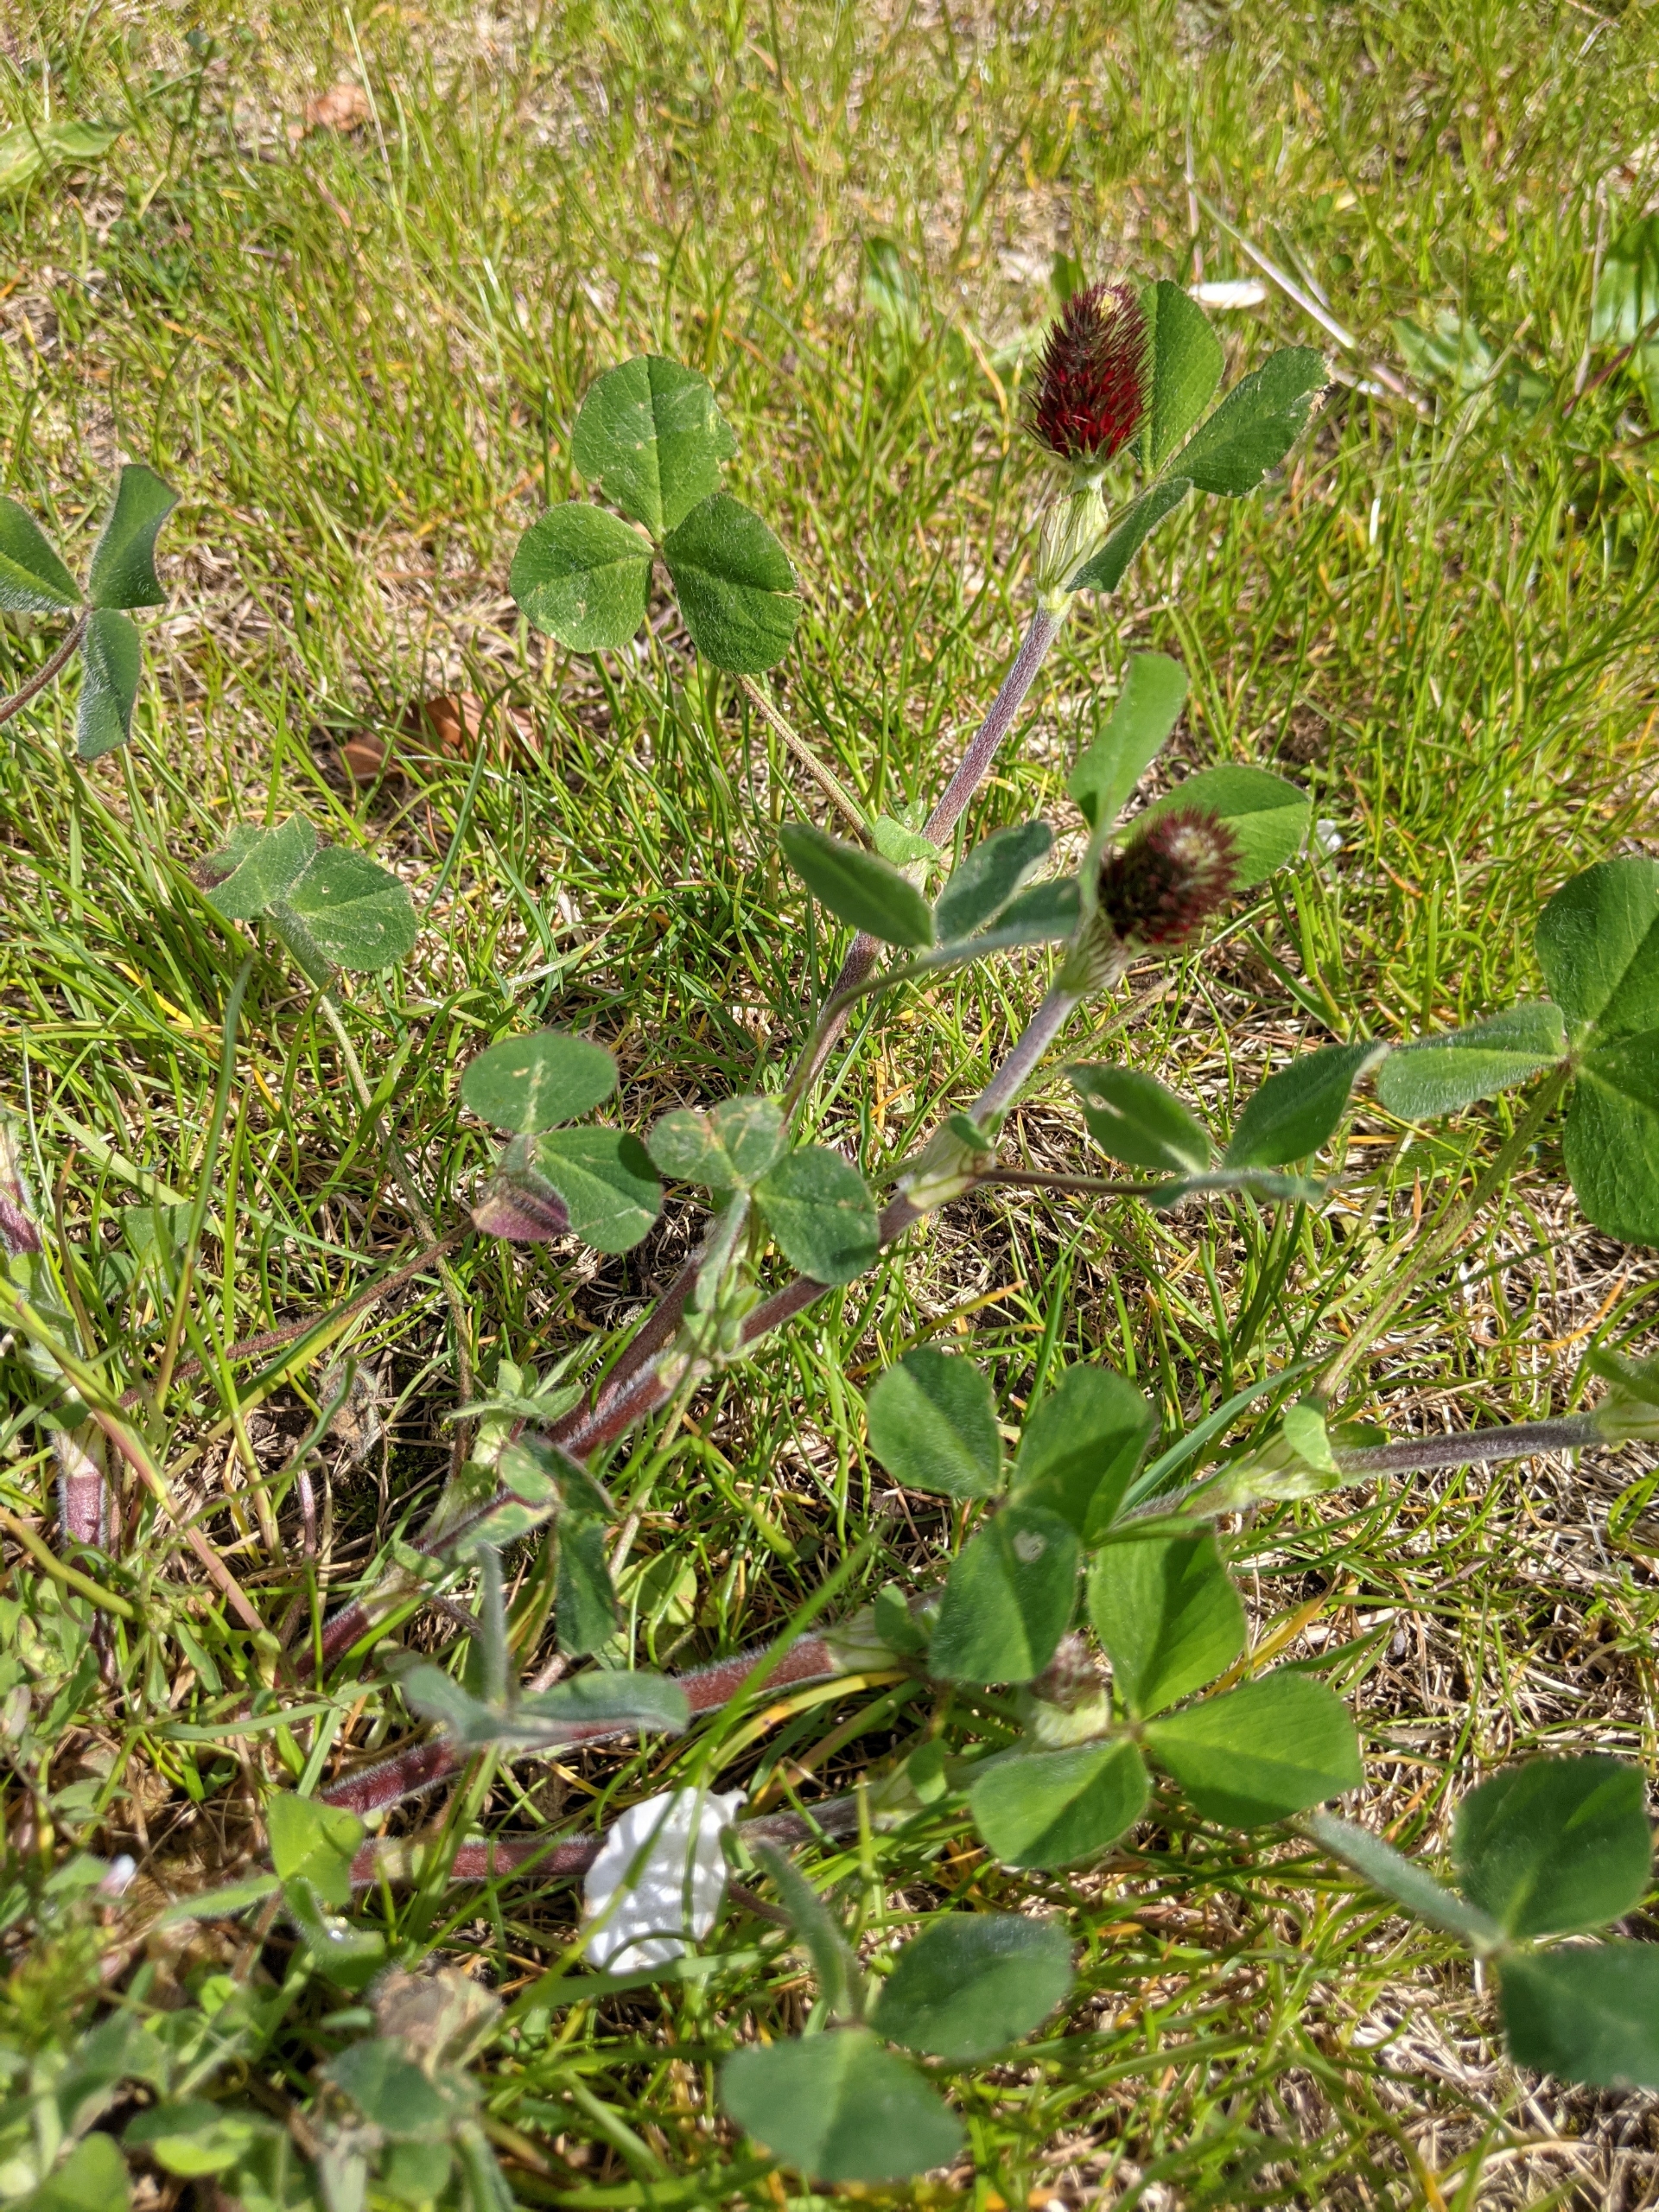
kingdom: Plantae
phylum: Tracheophyta
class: Magnoliopsida
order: Fabales
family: Fabaceae
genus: Trifolium
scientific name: Trifolium incarnatum
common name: Blod-kløver
